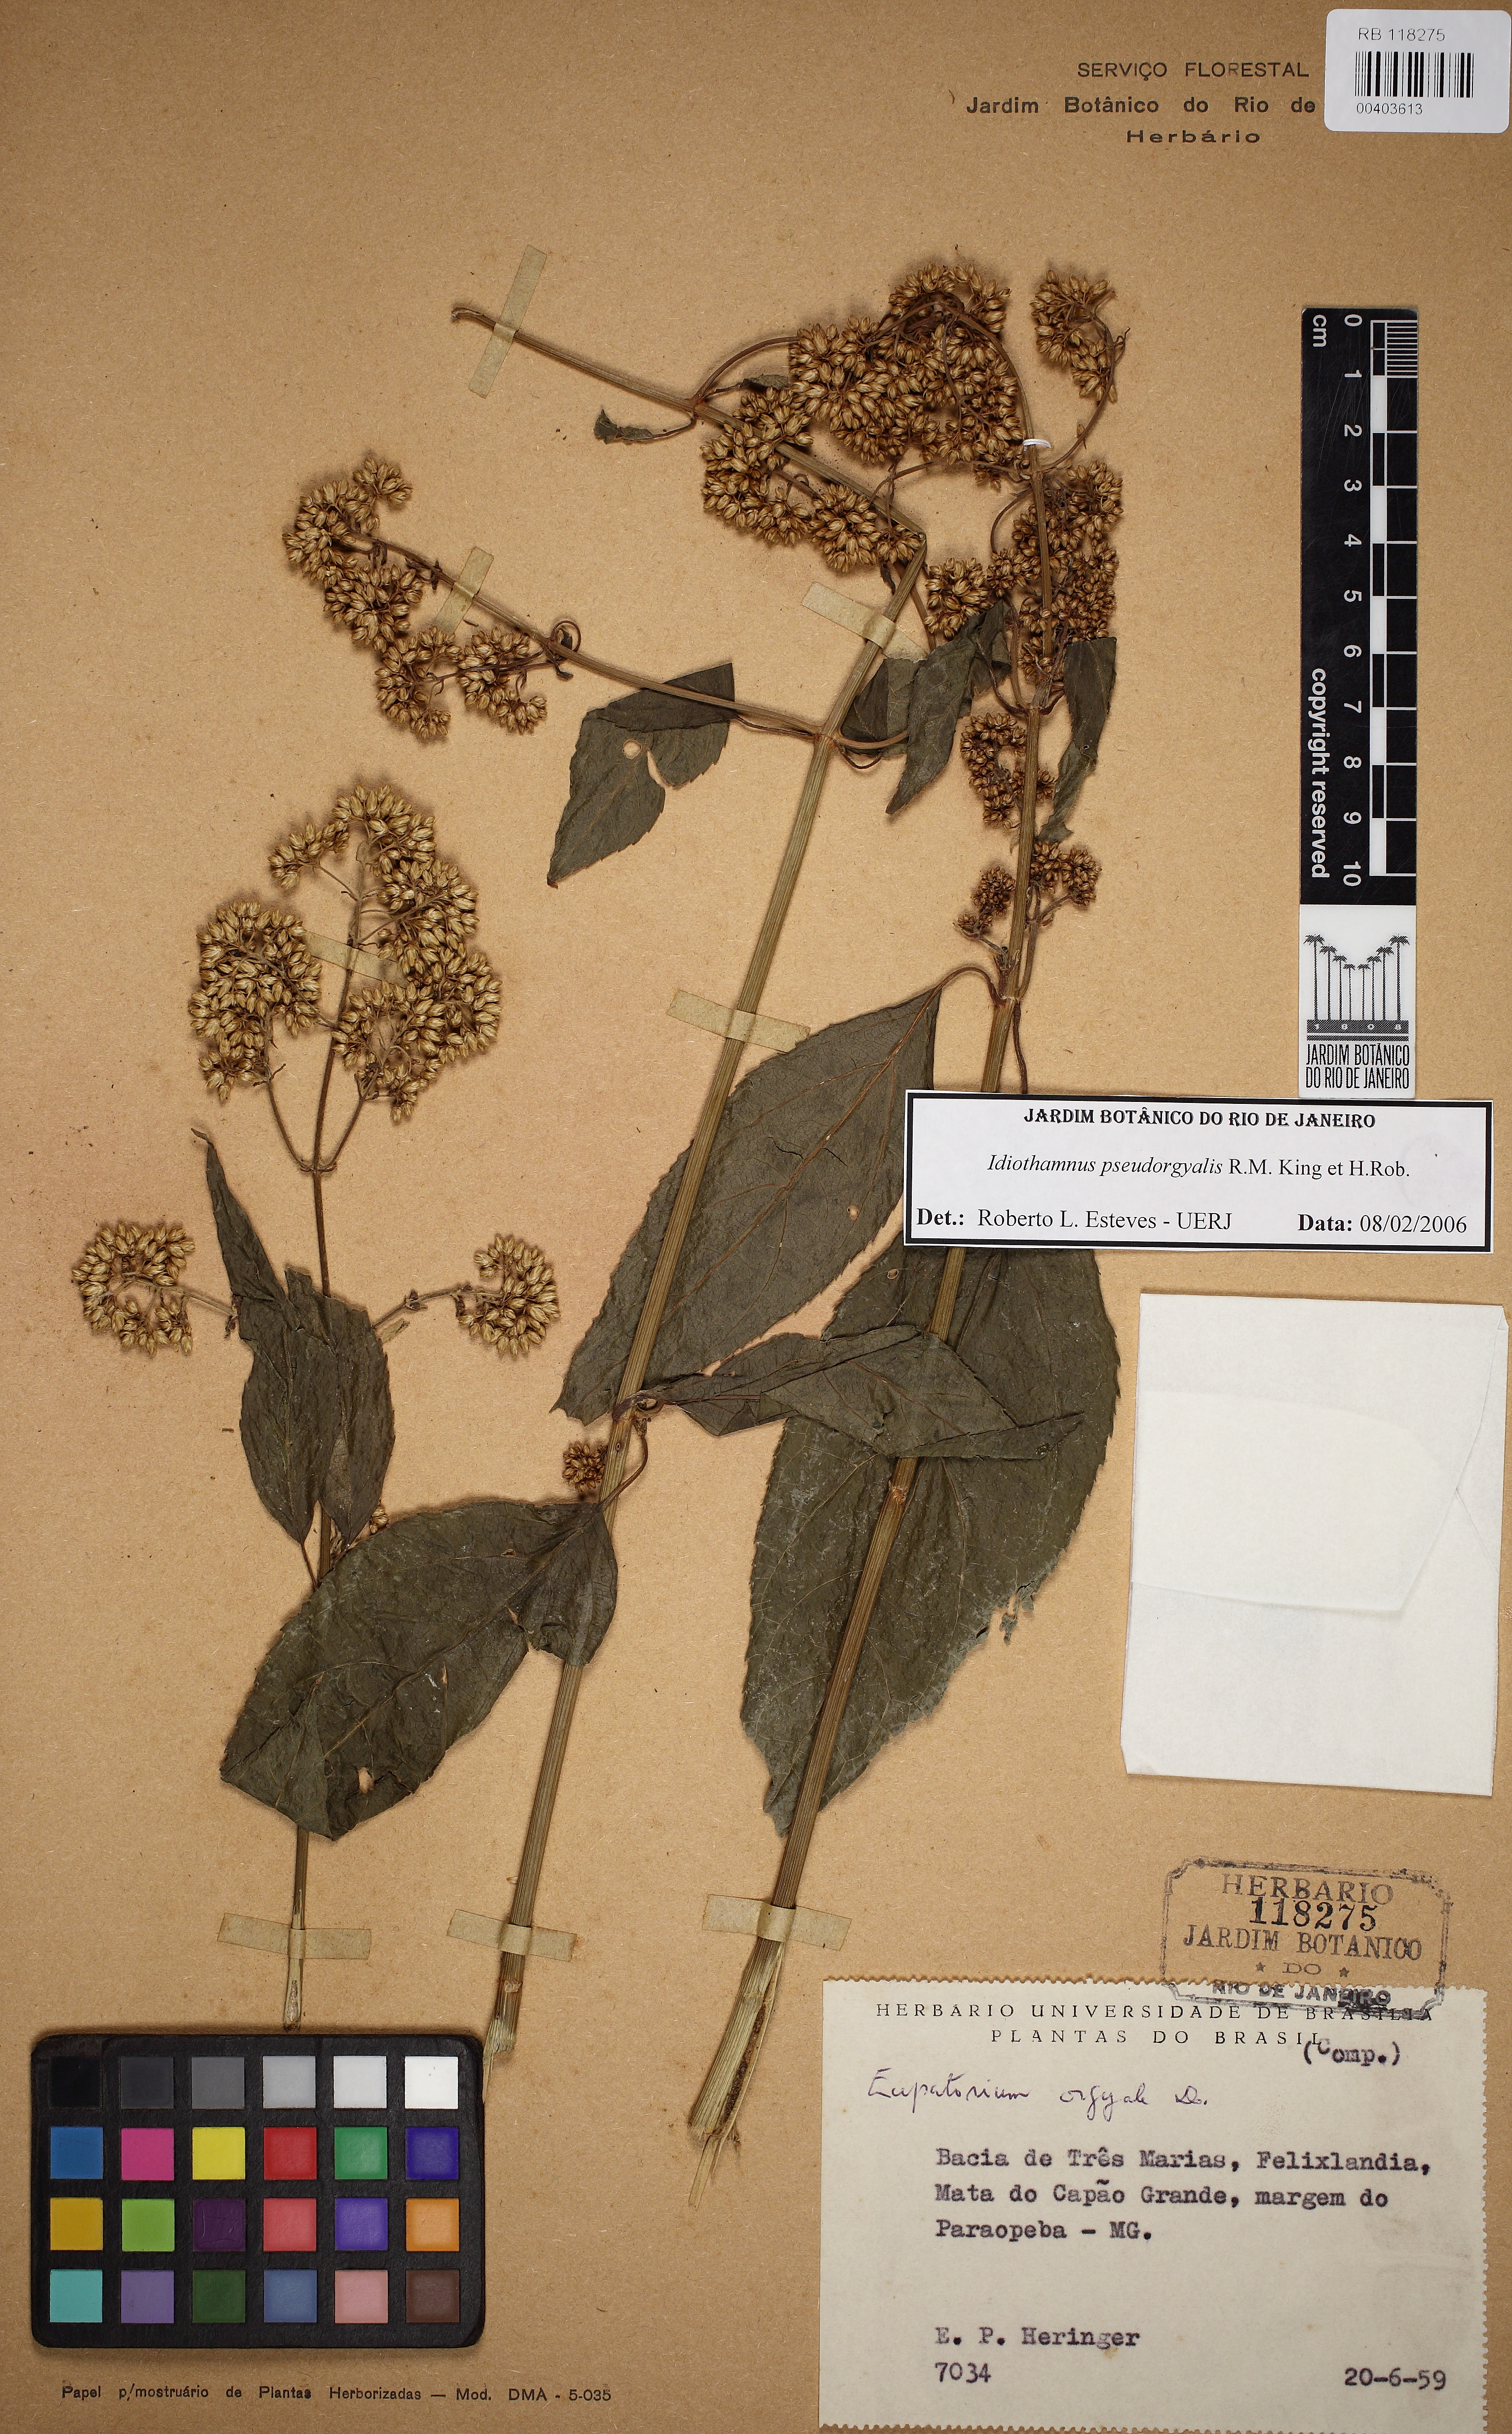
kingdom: Plantae
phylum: Tracheophyta
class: Magnoliopsida
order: Asterales
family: Asteraceae
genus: Idiothamnus
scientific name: Idiothamnus pseudorgyalis
